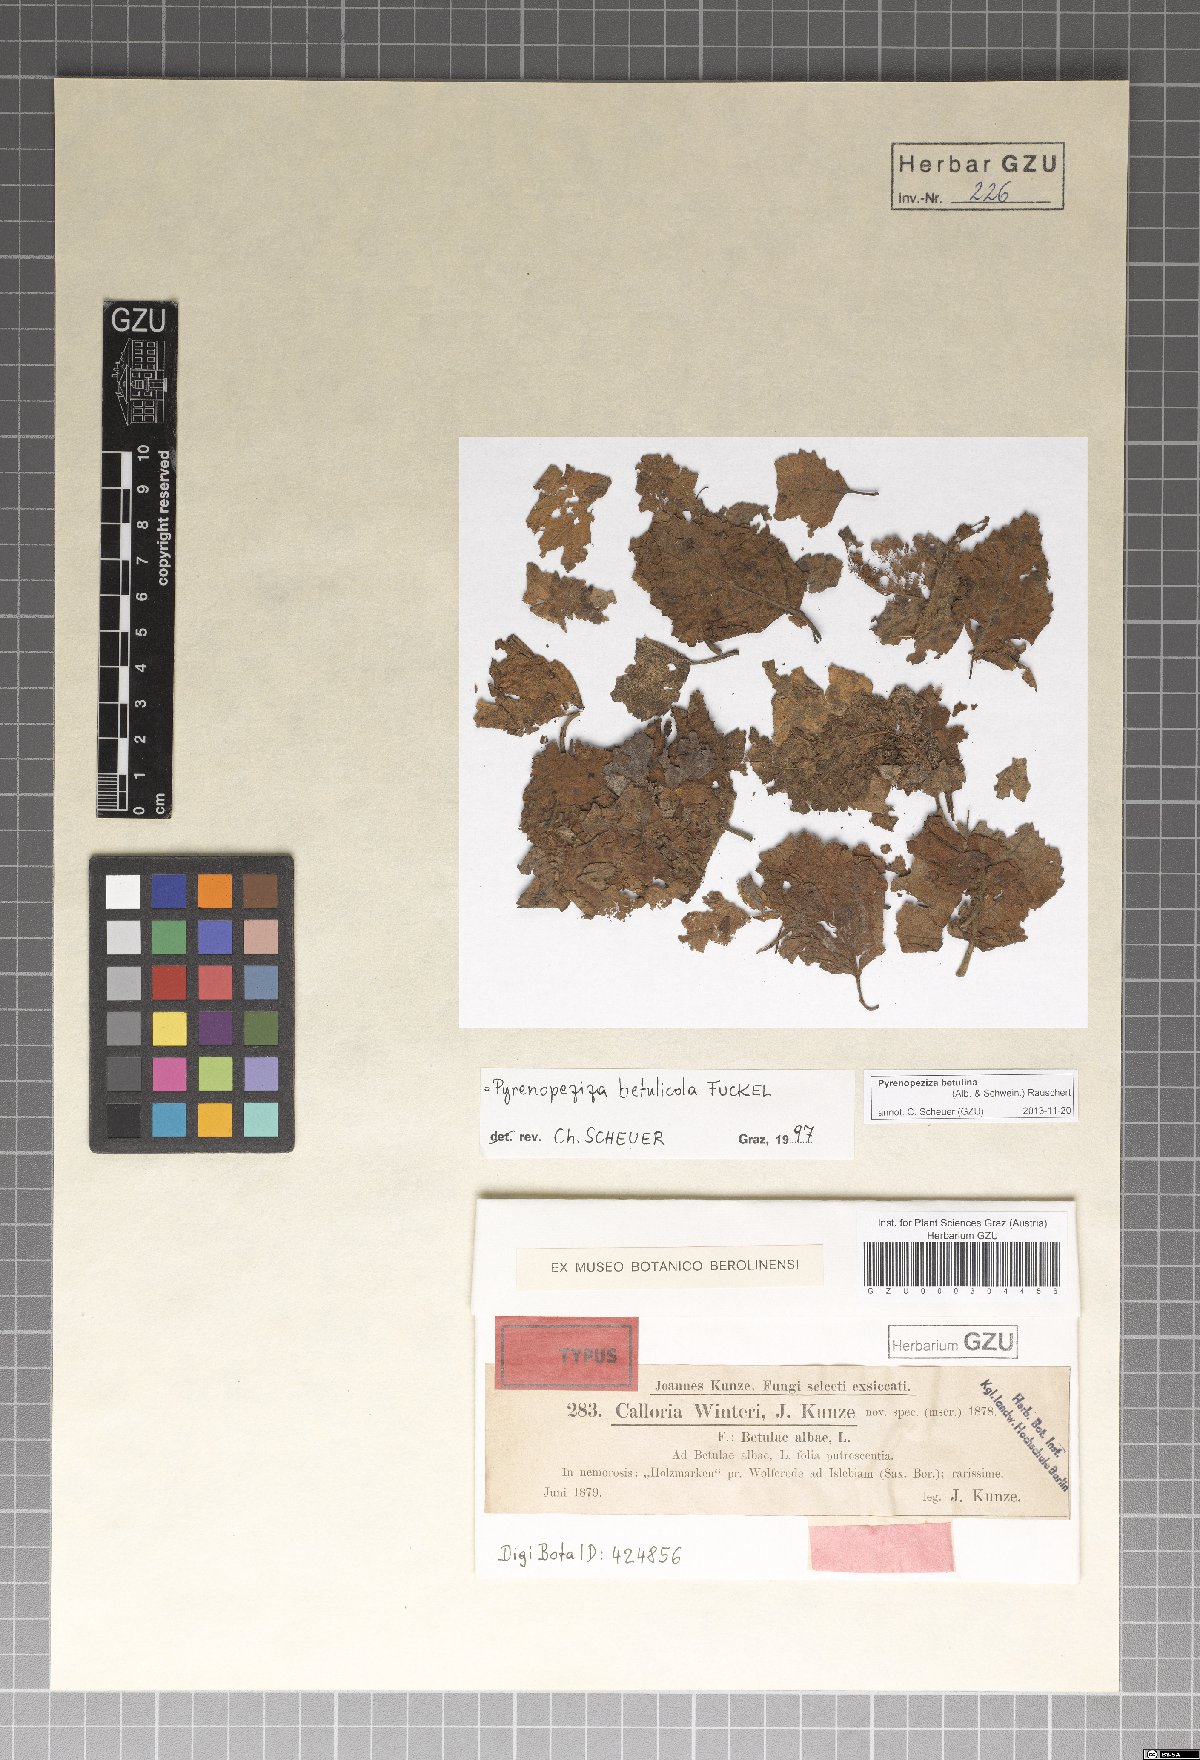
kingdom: Fungi
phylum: Ascomycota
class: Leotiomycetes
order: Helotiales
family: Dermateaceae
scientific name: Dermateaceae
